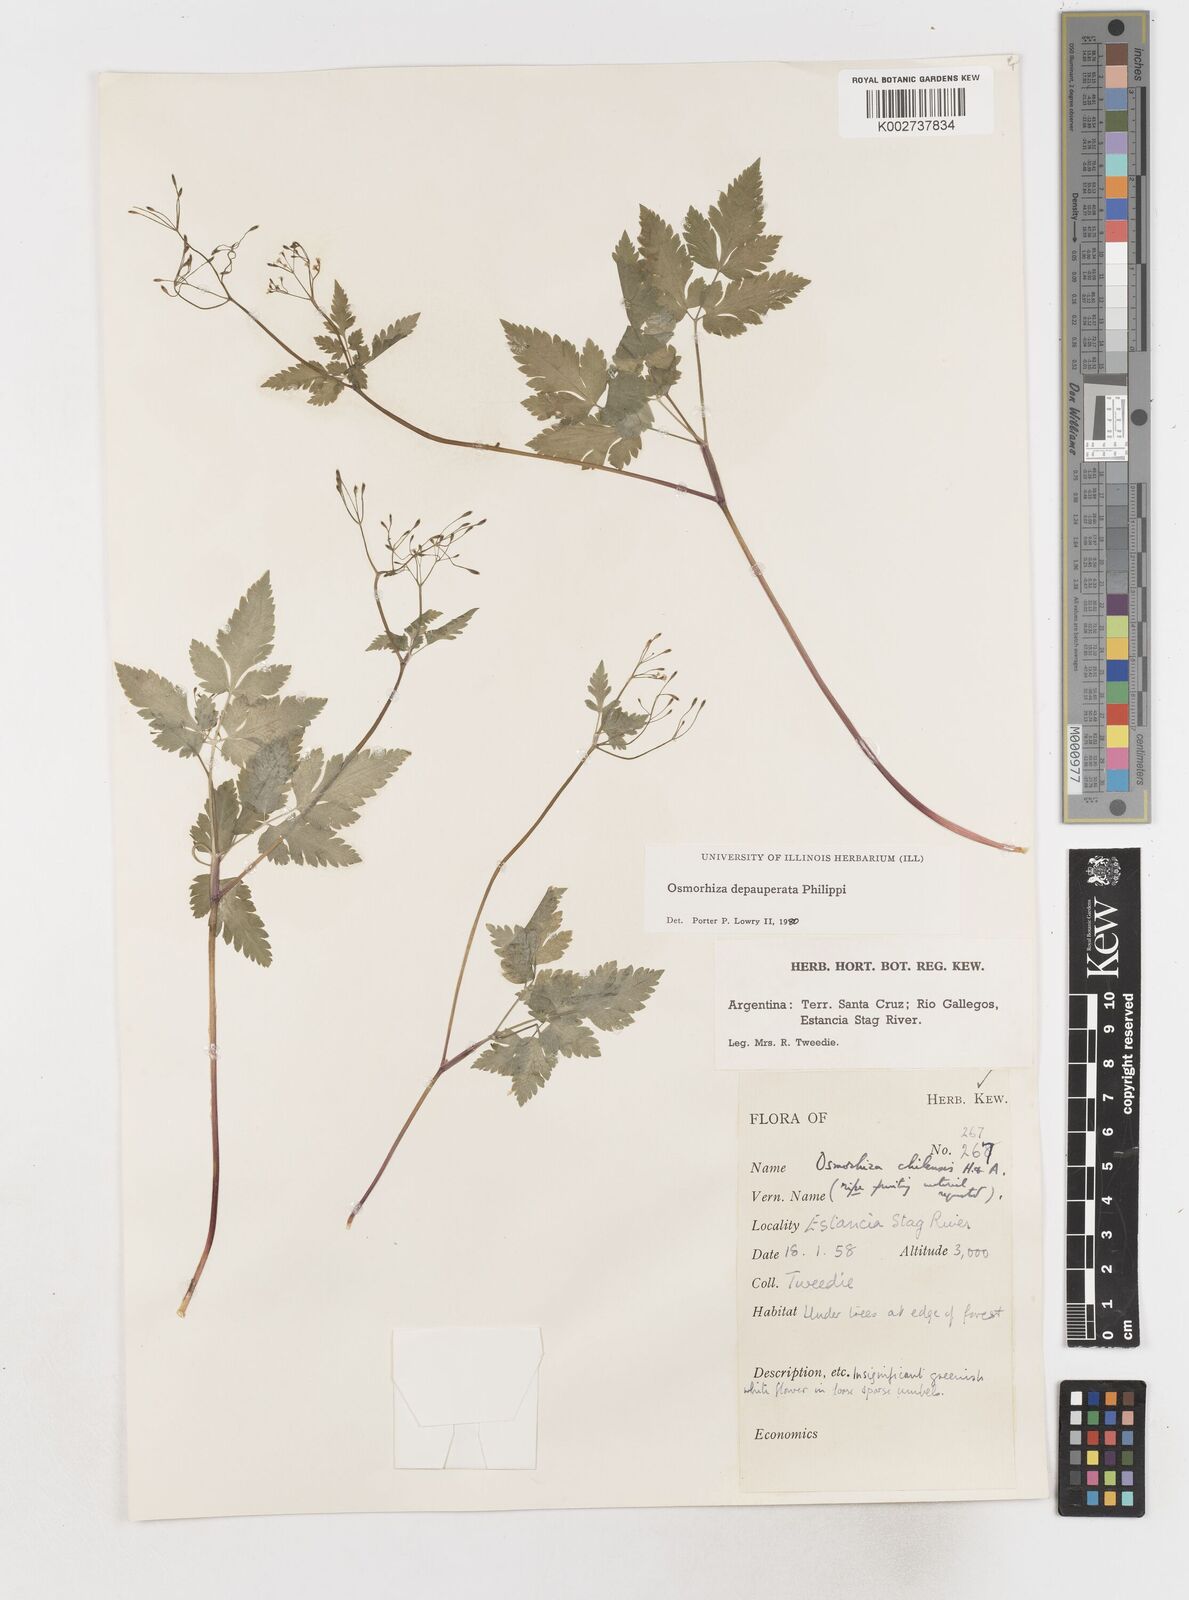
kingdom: Plantae
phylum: Tracheophyta
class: Magnoliopsida
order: Apiales
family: Apiaceae
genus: Osmorhiza
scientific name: Osmorhiza depauperata
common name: Blunt sweet cicely
